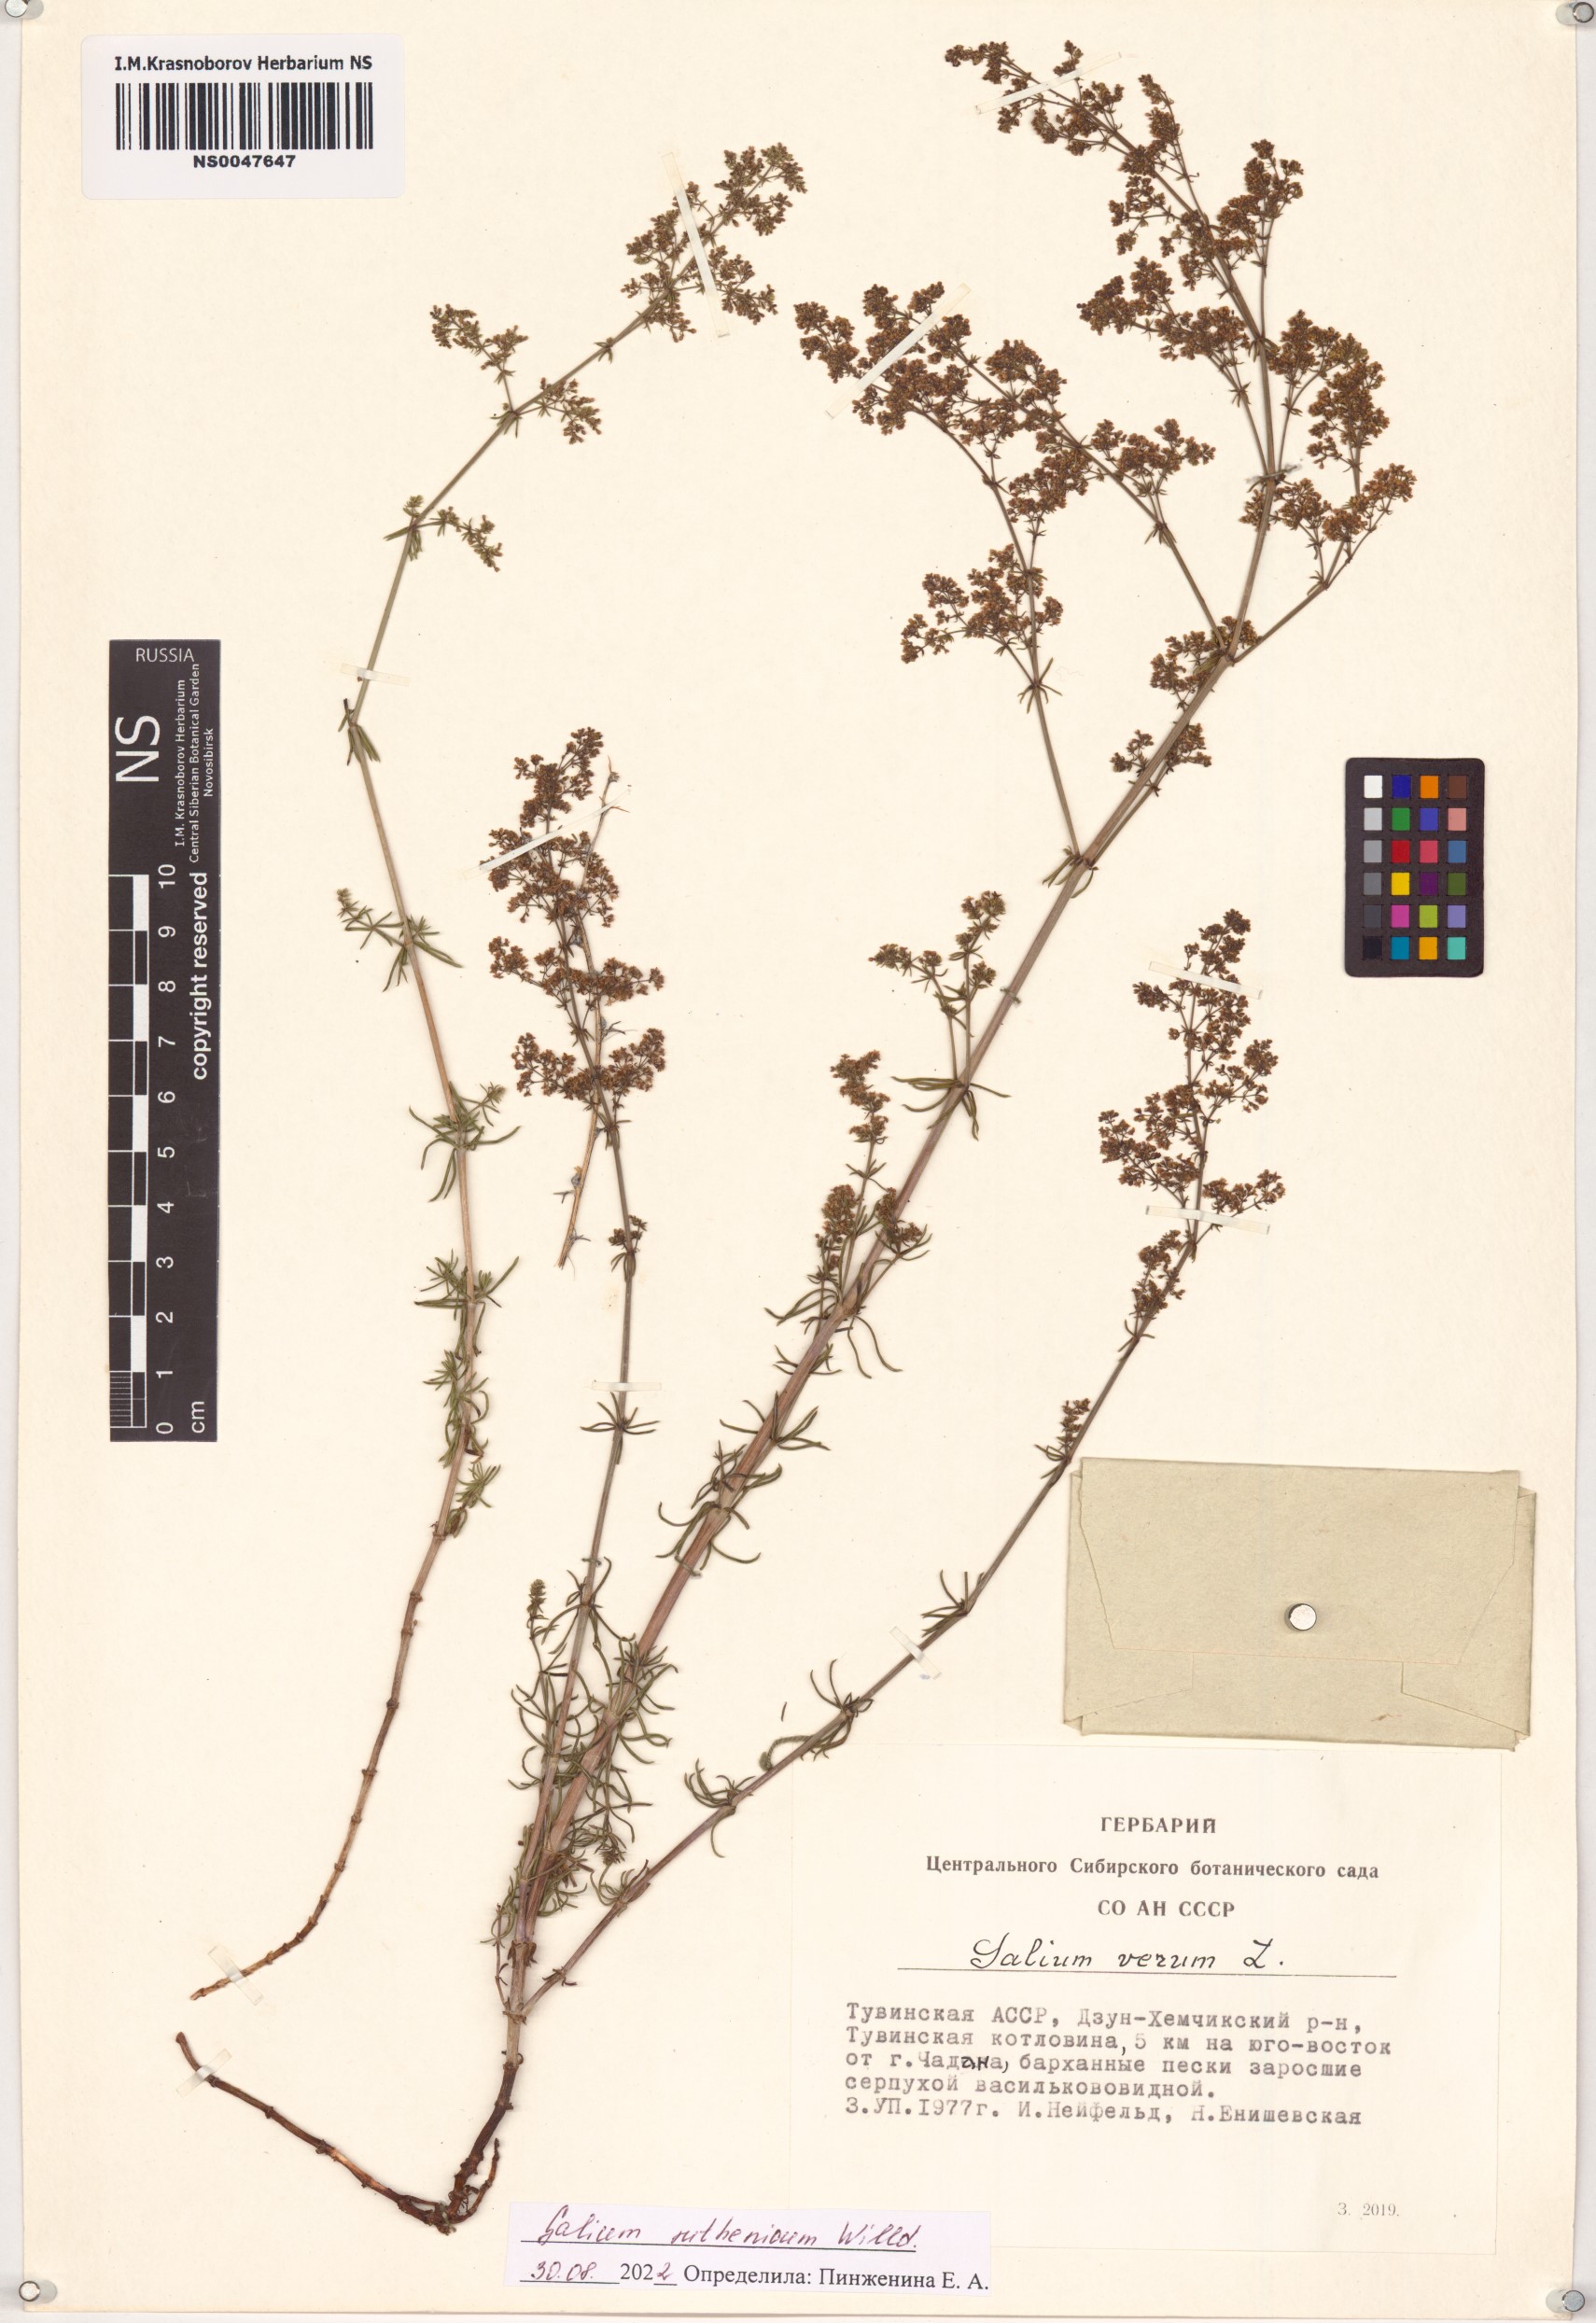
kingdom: Plantae
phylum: Tracheophyta
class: Magnoliopsida
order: Gentianales
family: Rubiaceae
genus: Galium
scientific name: Galium verum
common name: Lady's bedstraw
